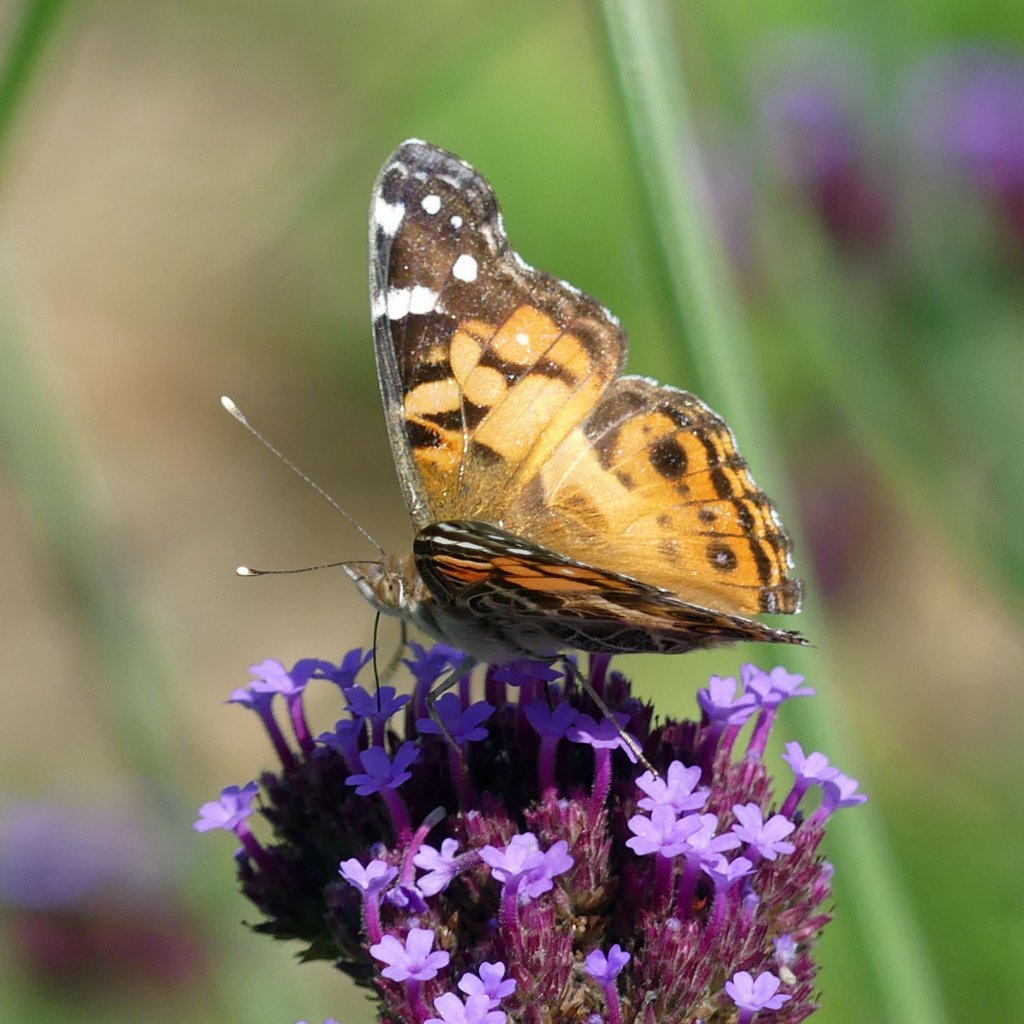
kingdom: Animalia
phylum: Arthropoda
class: Insecta
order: Lepidoptera
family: Nymphalidae
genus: Vanessa
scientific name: Vanessa virginiensis
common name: American Lady
